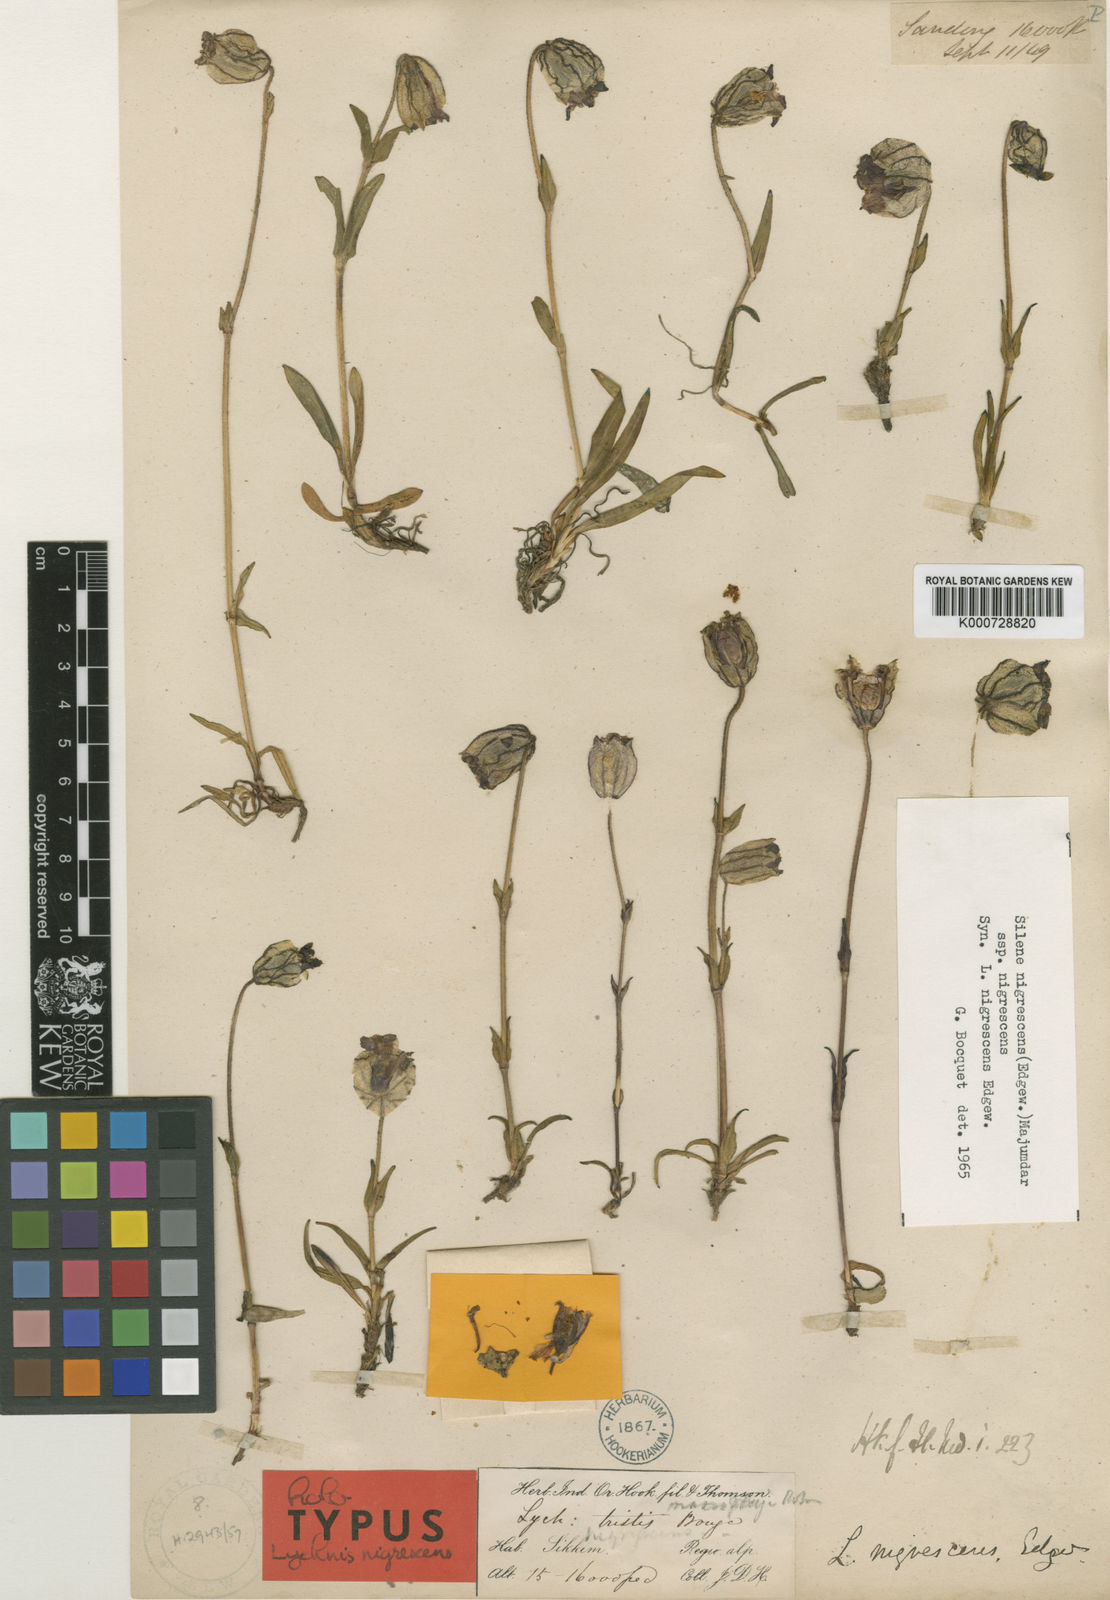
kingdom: Plantae
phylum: Tracheophyta
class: Magnoliopsida
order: Caryophyllales
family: Caryophyllaceae
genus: Silene
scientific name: Silene nigrescens
